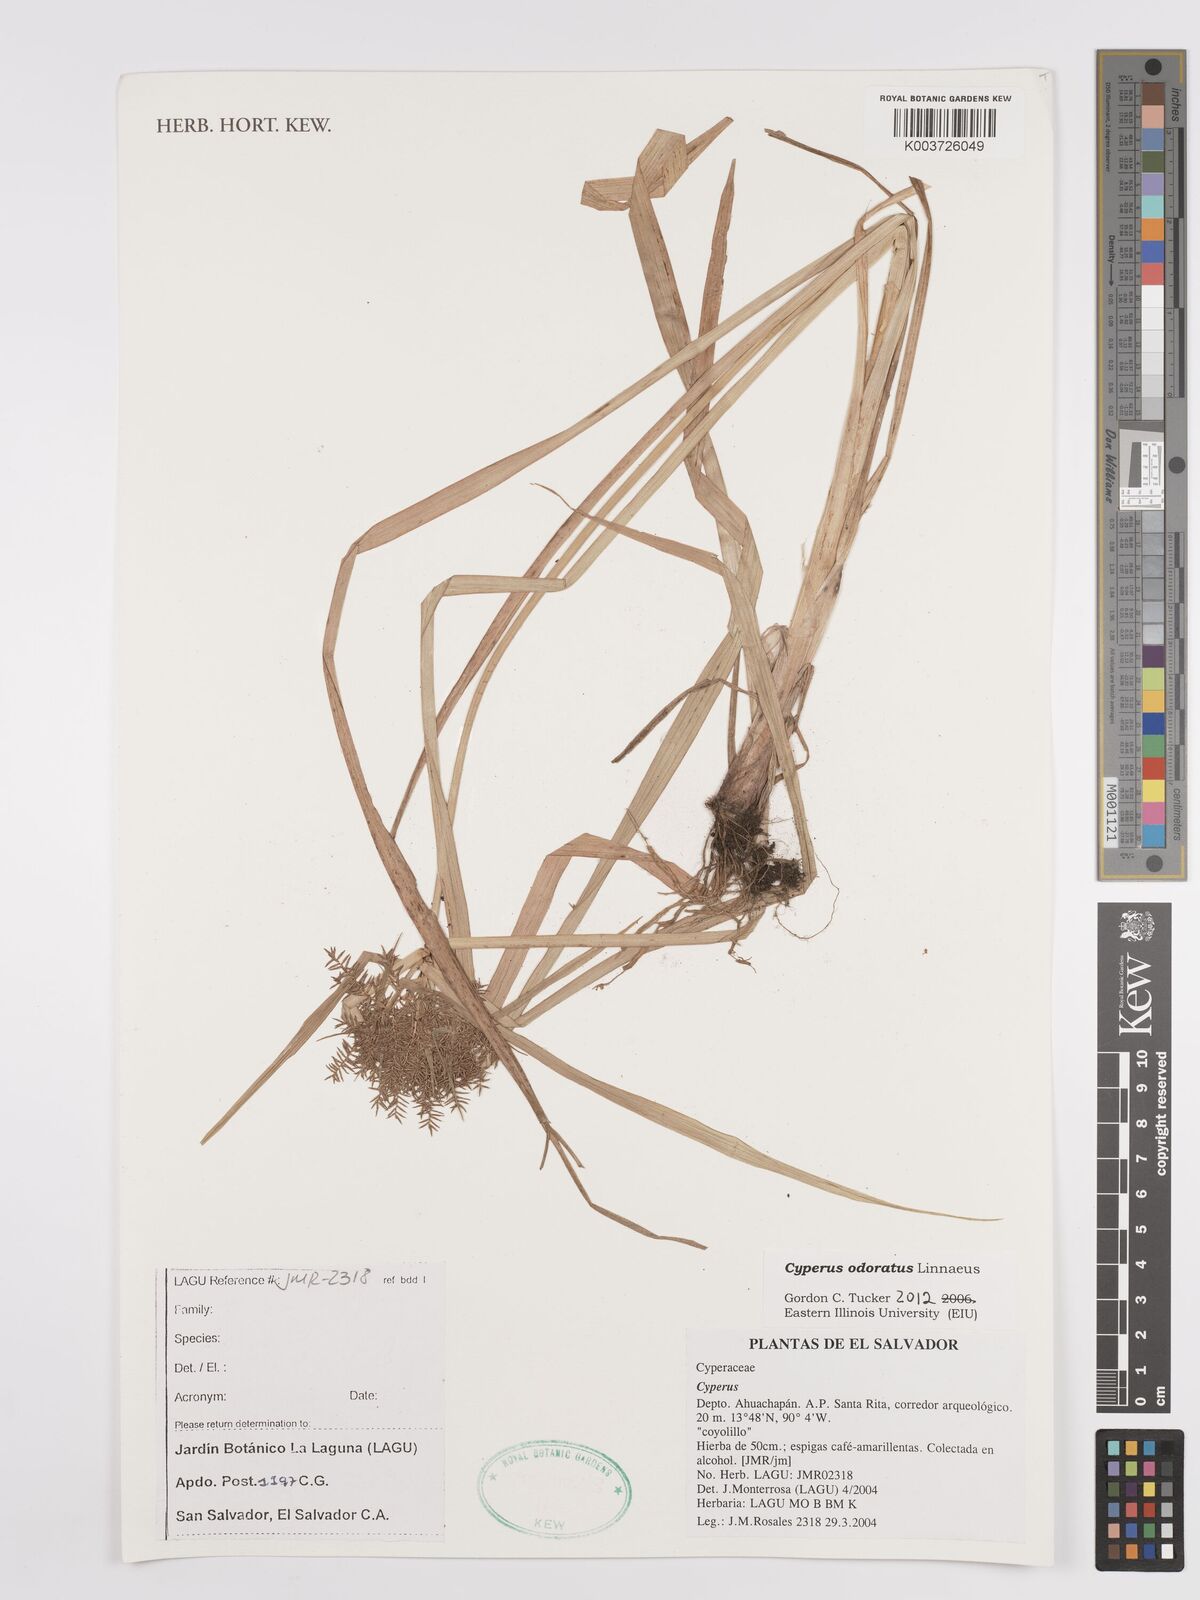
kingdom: Plantae
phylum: Tracheophyta
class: Liliopsida
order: Poales
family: Cyperaceae
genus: Cyperus
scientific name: Cyperus odoratus
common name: Fragrant flatsedge
